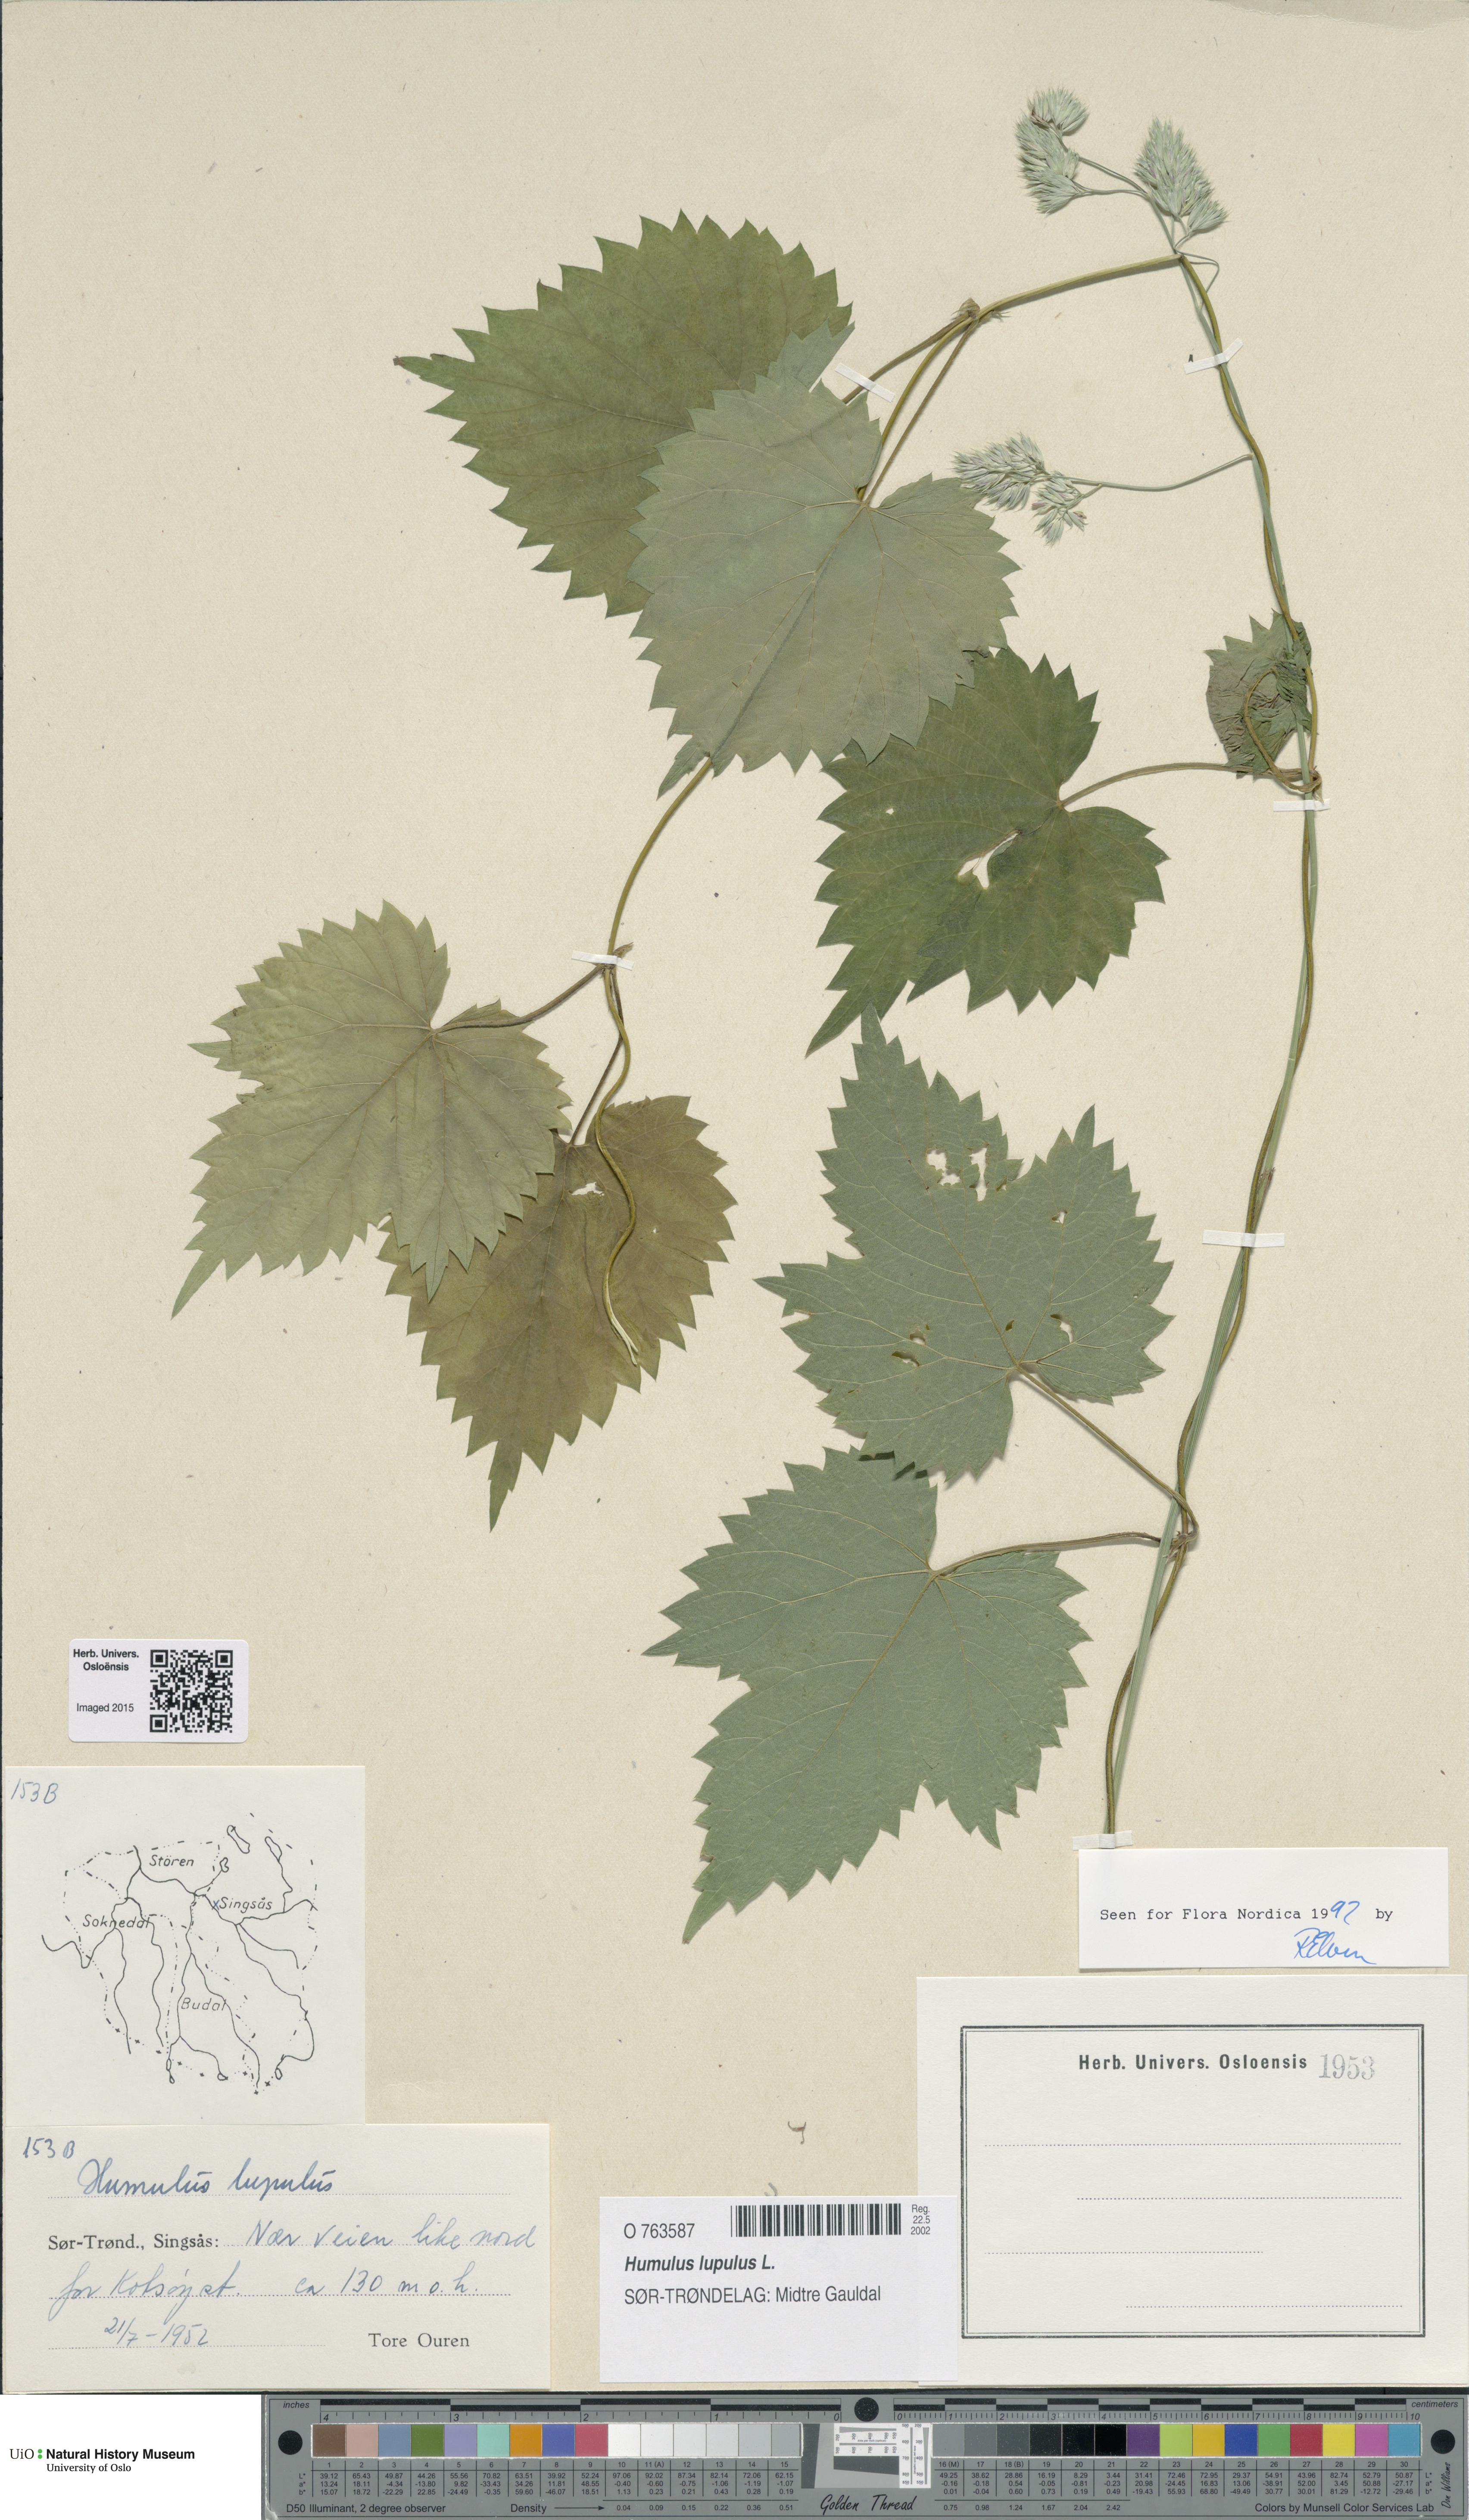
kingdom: Plantae
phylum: Tracheophyta
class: Magnoliopsida
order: Rosales
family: Cannabaceae
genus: Humulus
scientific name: Humulus lupulus
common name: Hop
